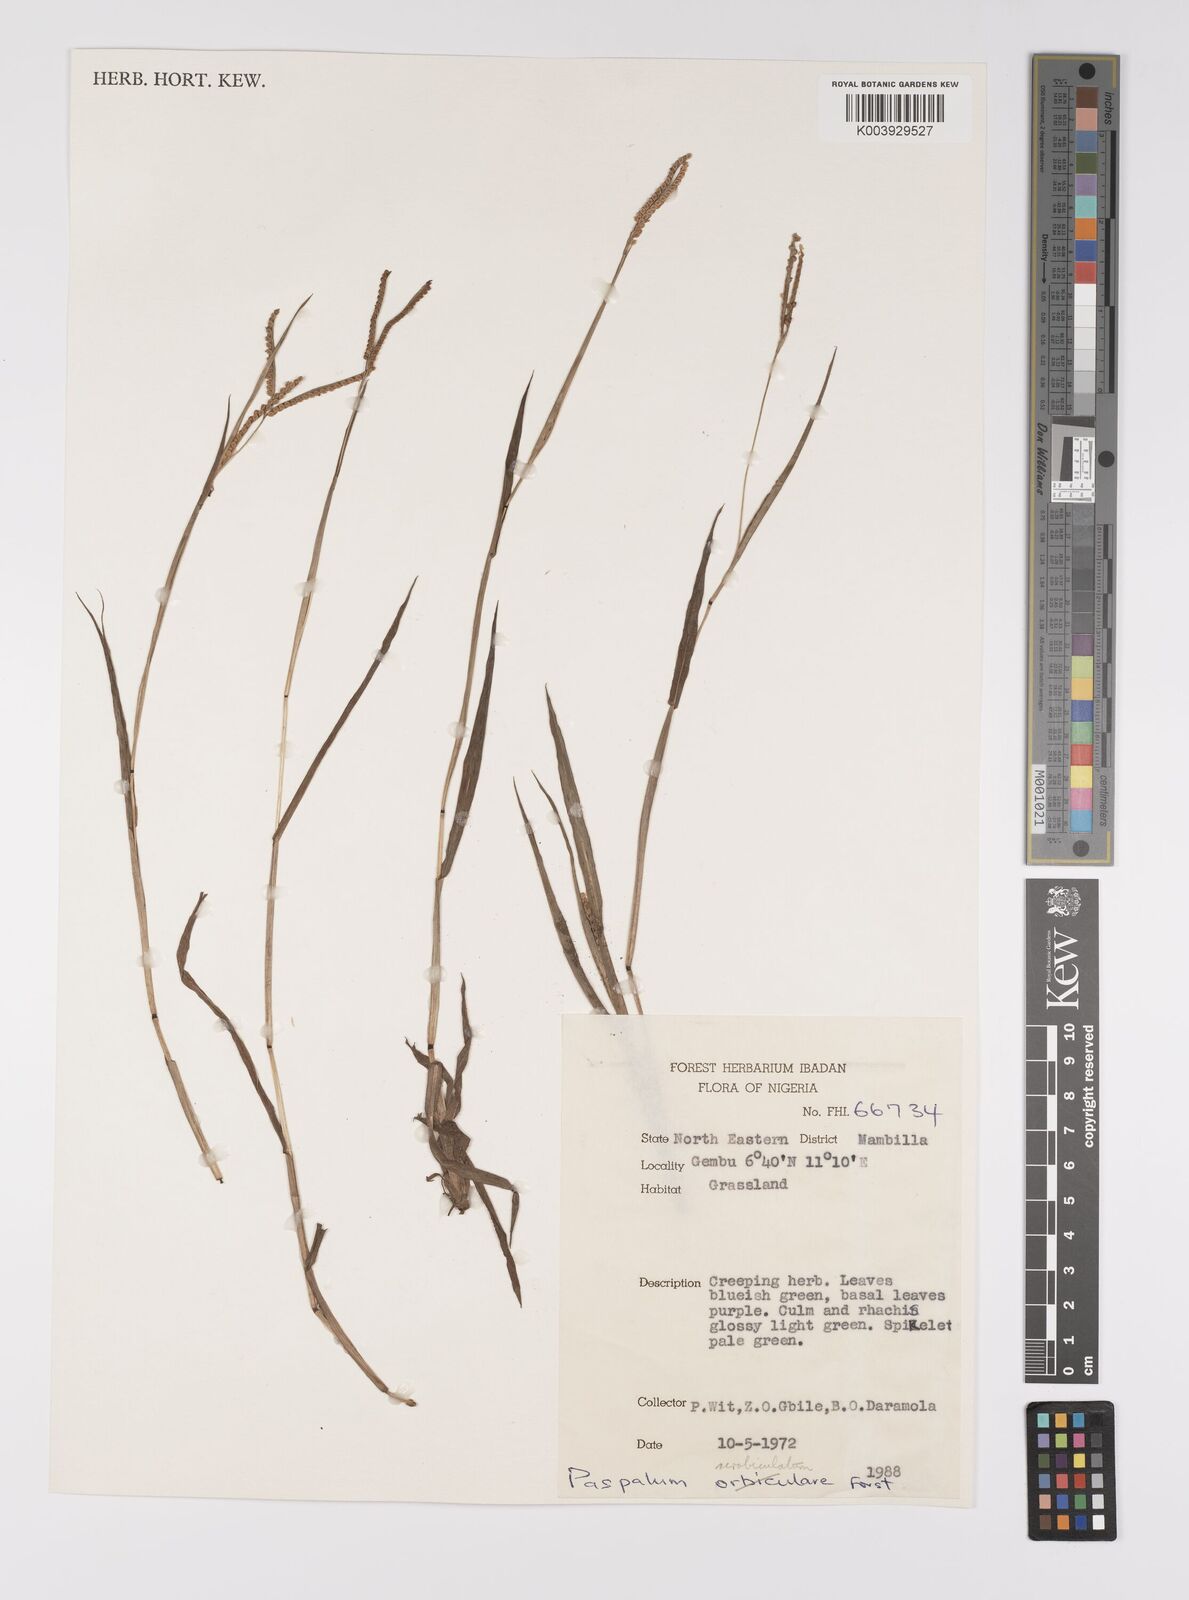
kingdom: Plantae
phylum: Tracheophyta
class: Liliopsida
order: Poales
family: Poaceae
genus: Paspalum
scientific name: Paspalum scrobiculatum
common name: Kodo millet
